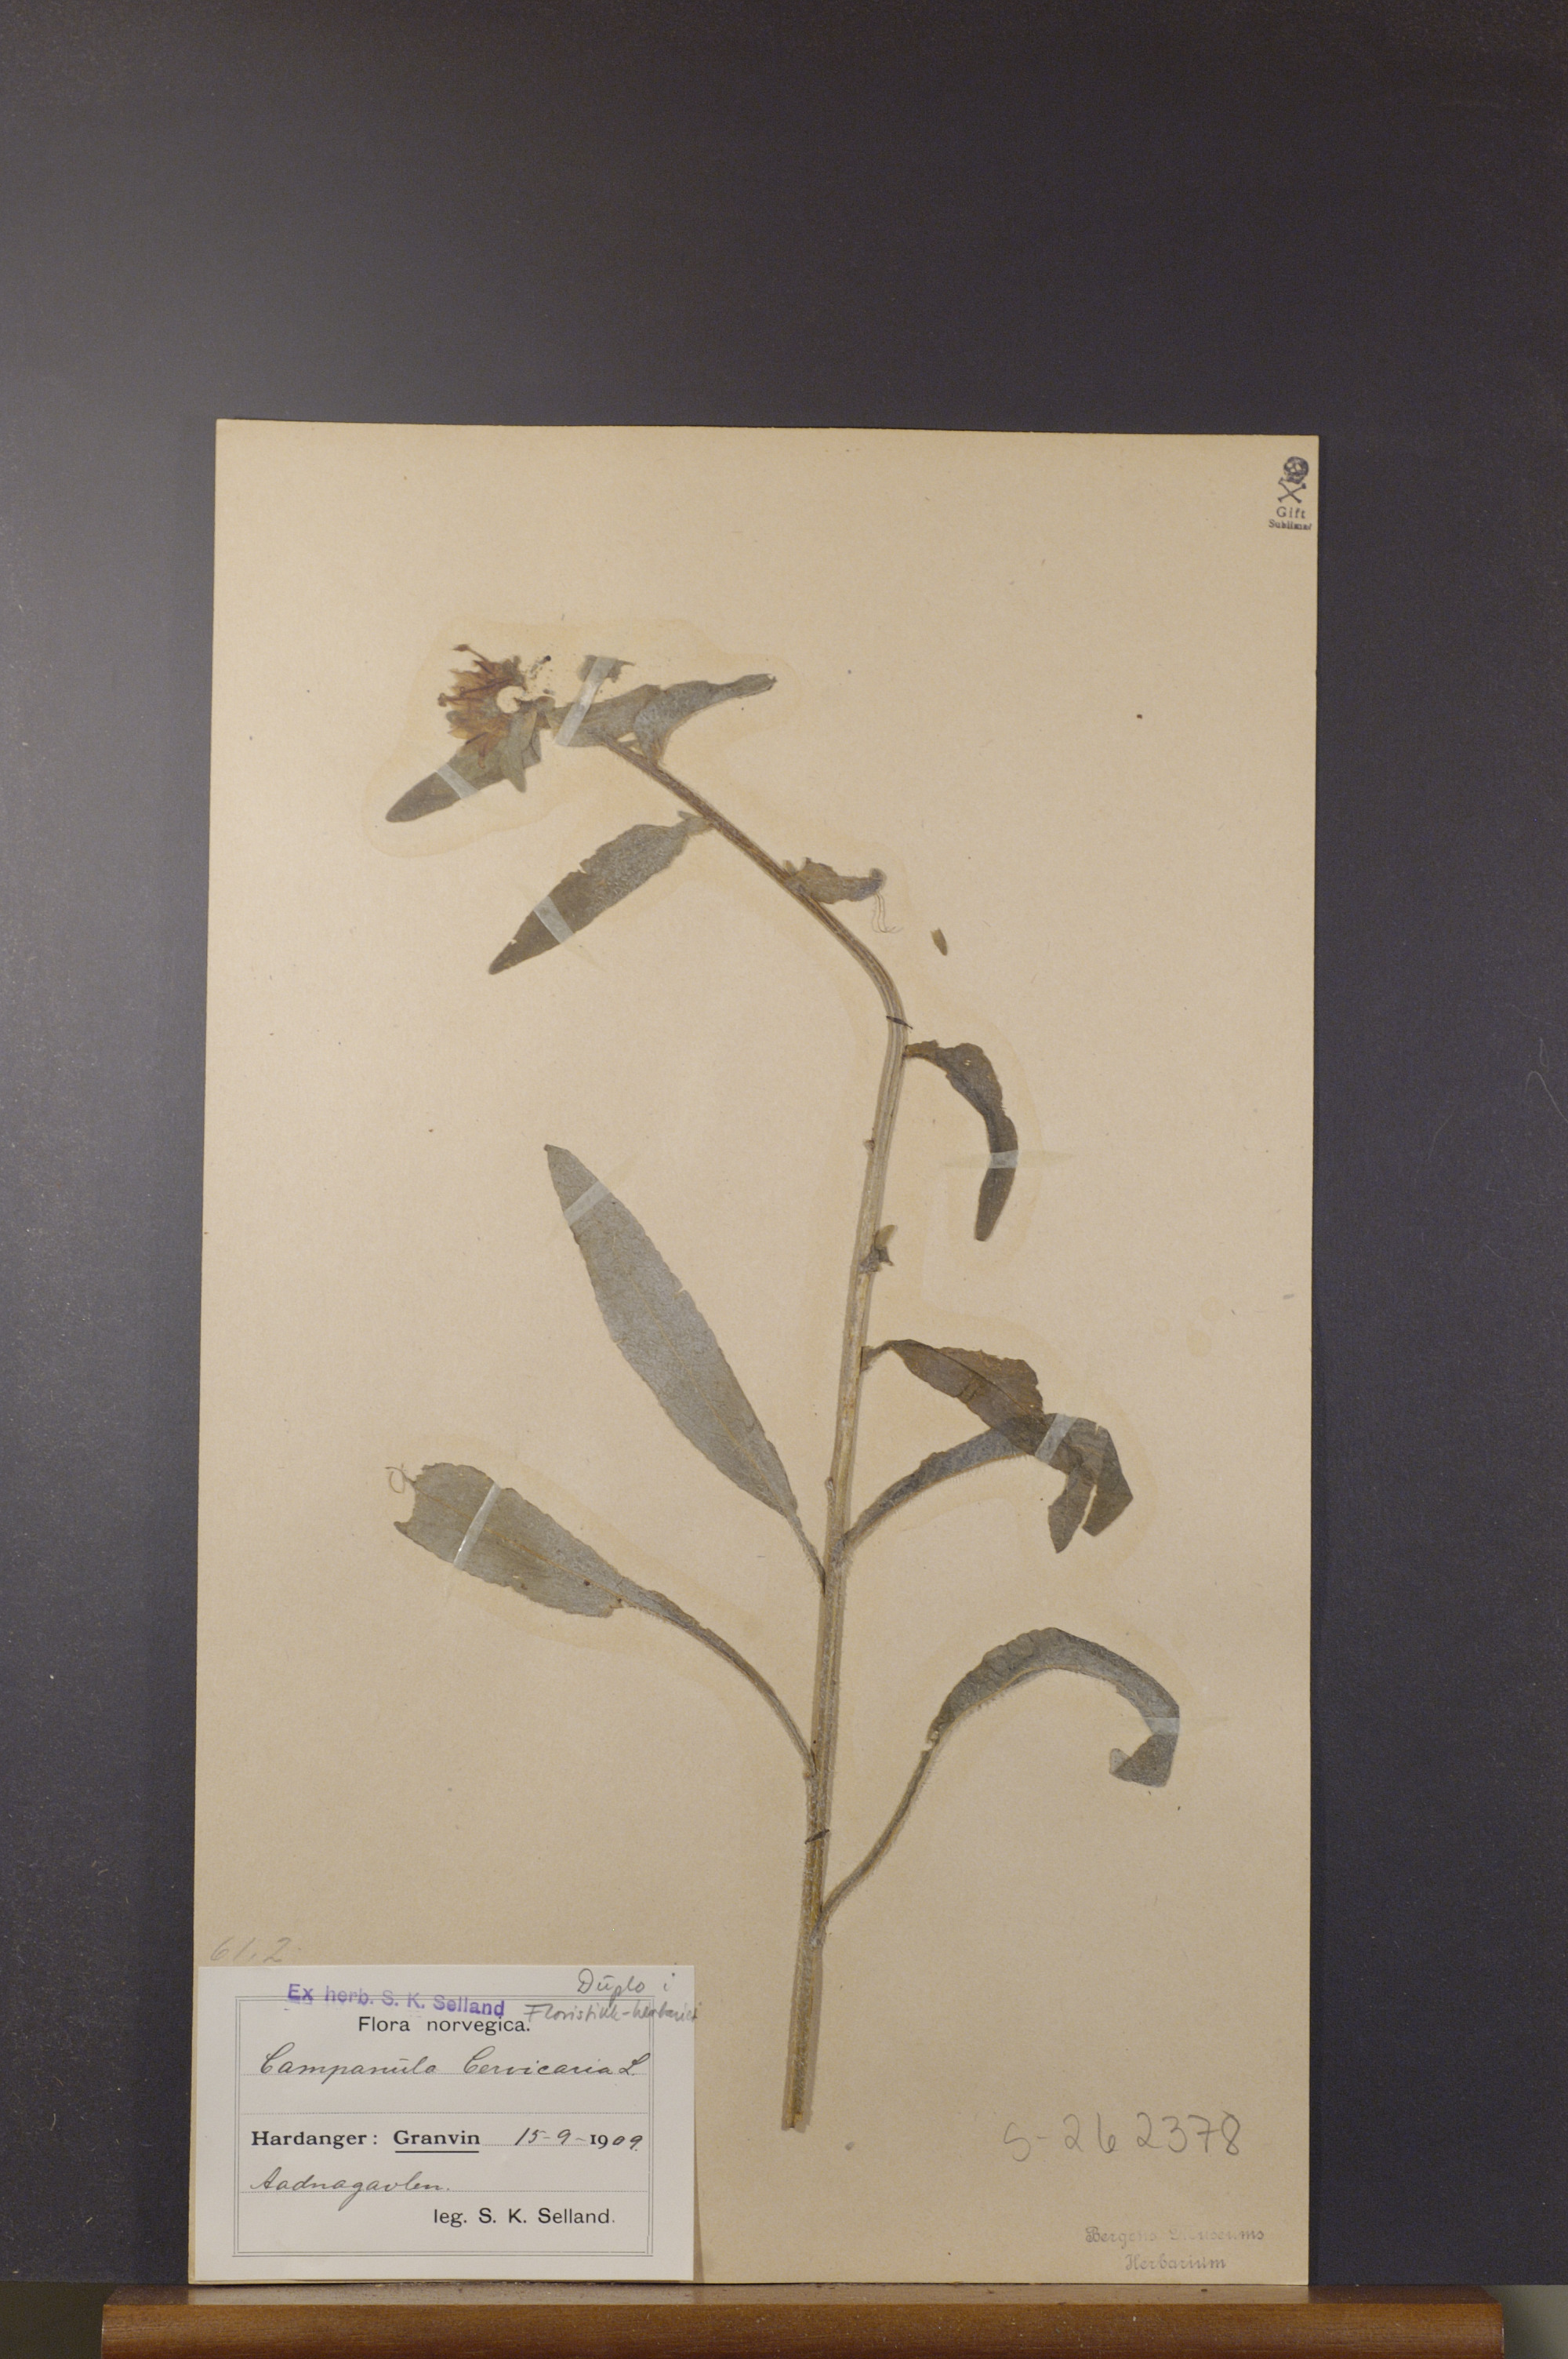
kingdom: Plantae
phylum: Tracheophyta
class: Magnoliopsida
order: Asterales
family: Campanulaceae
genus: Campanula
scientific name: Campanula cervicaria
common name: Bristly bellflower
